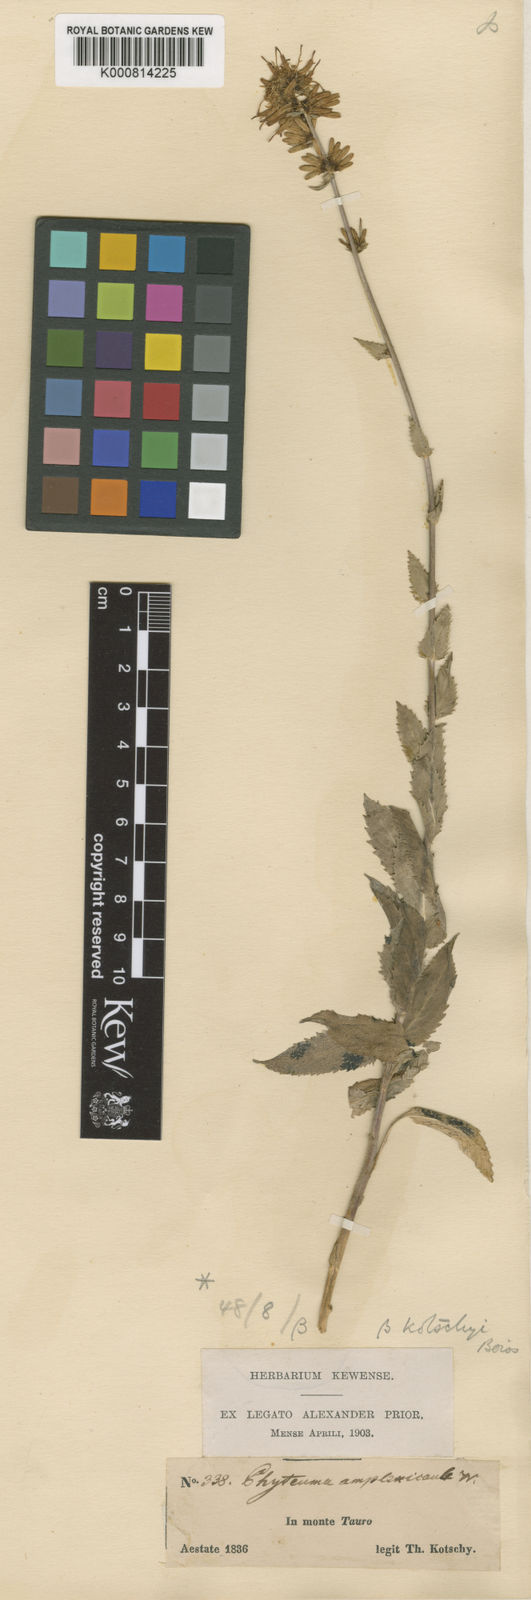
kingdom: Plantae
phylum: Tracheophyta
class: Magnoliopsida
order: Asterales
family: Campanulaceae
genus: Asyneuma
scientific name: Asyneuma amplexicaule
